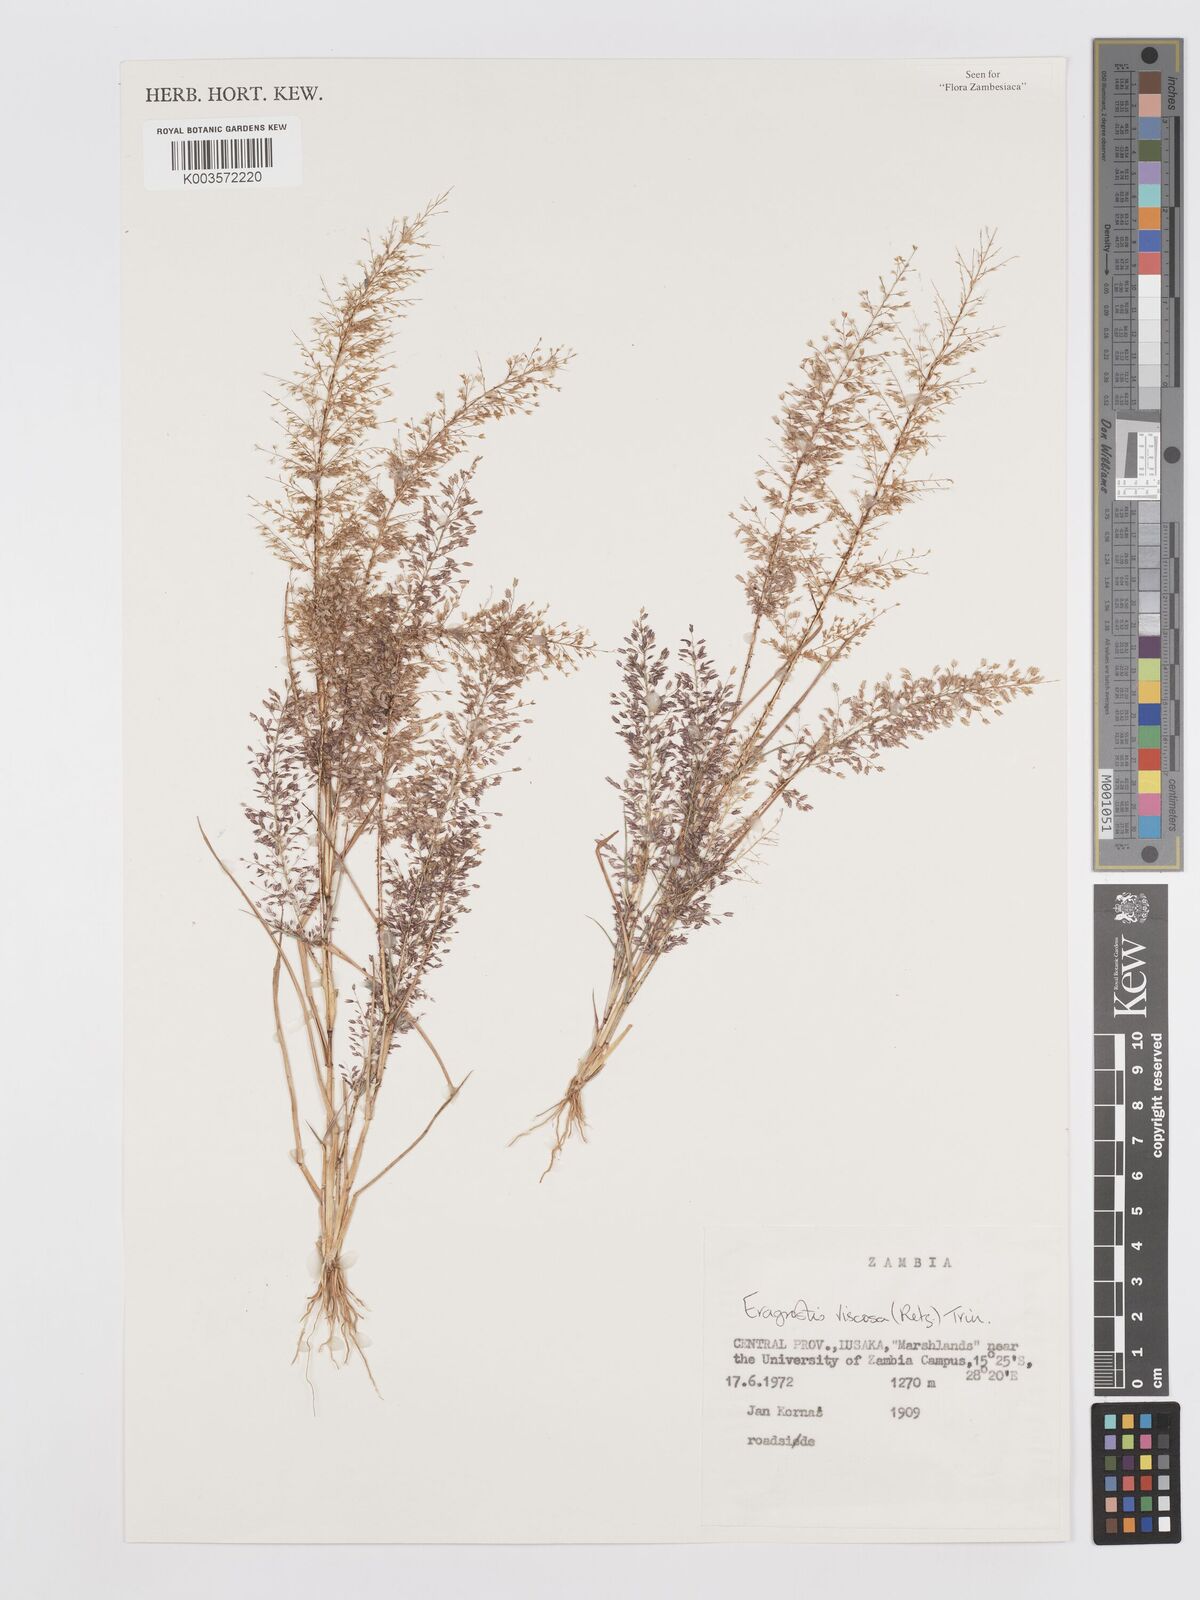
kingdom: Plantae
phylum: Tracheophyta
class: Liliopsida
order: Poales
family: Poaceae
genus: Eragrostis
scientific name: Eragrostis
